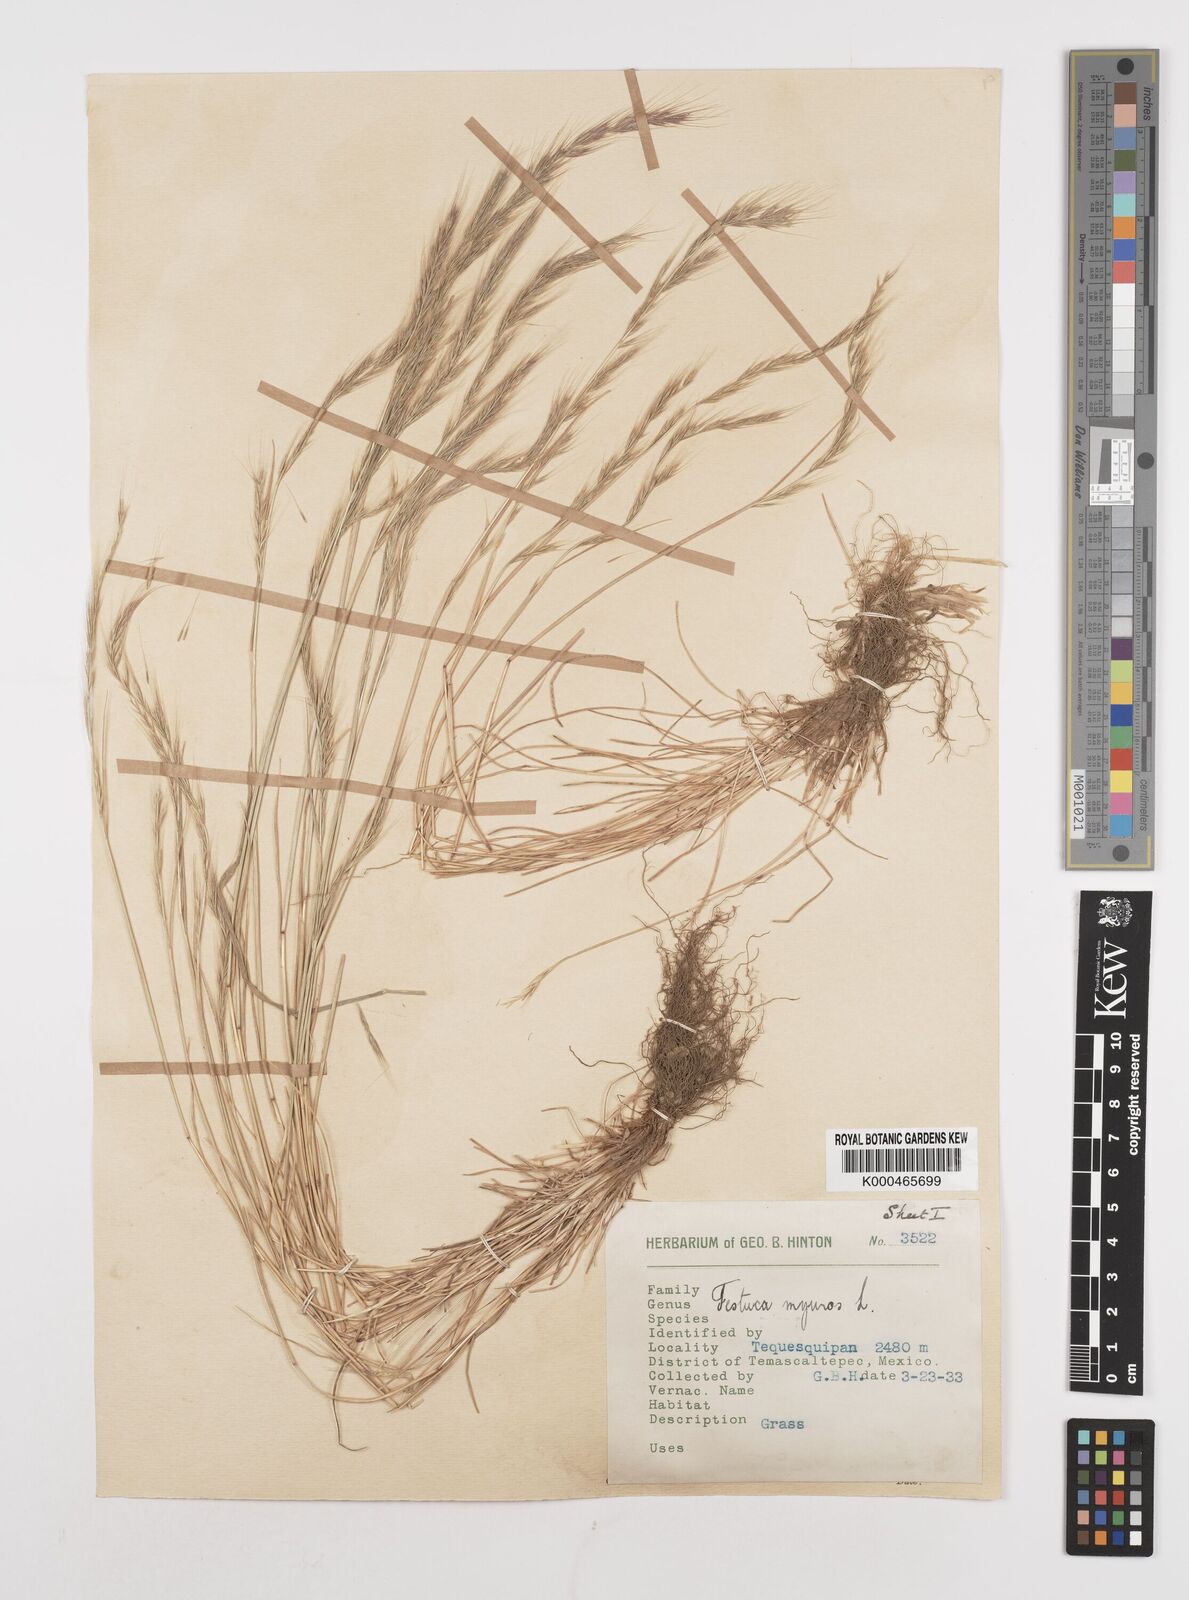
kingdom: Plantae
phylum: Tracheophyta
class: Liliopsida
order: Poales
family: Poaceae
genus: Festuca
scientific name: Festuca myuros
